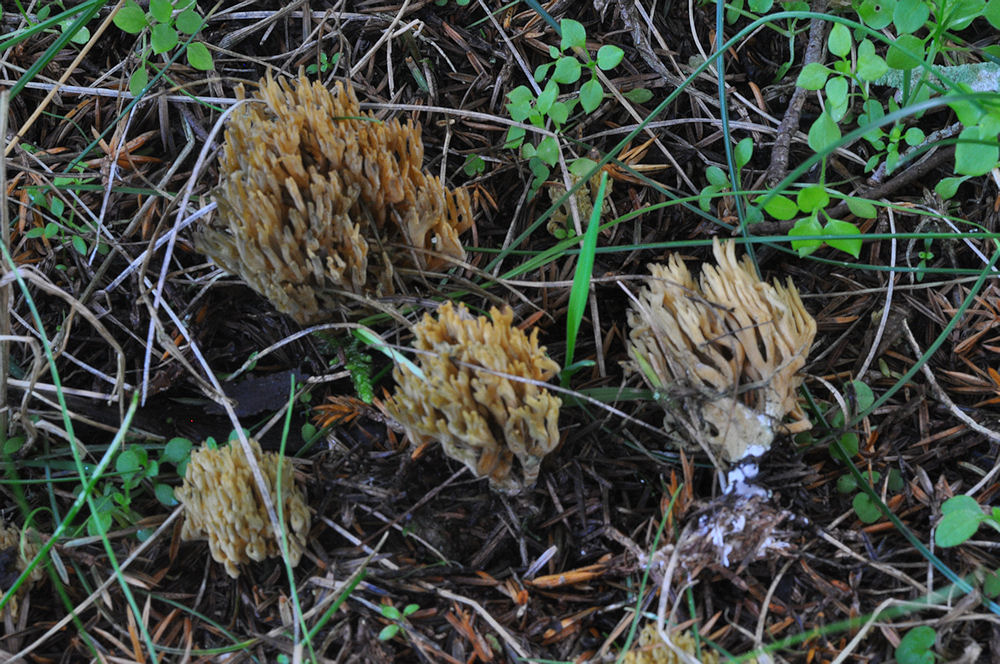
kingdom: Fungi
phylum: Basidiomycota
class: Agaricomycetes
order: Gomphales
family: Gomphaceae
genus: Phaeoclavulina
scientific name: Phaeoclavulina eumorpha
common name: gran-koralsvamp
